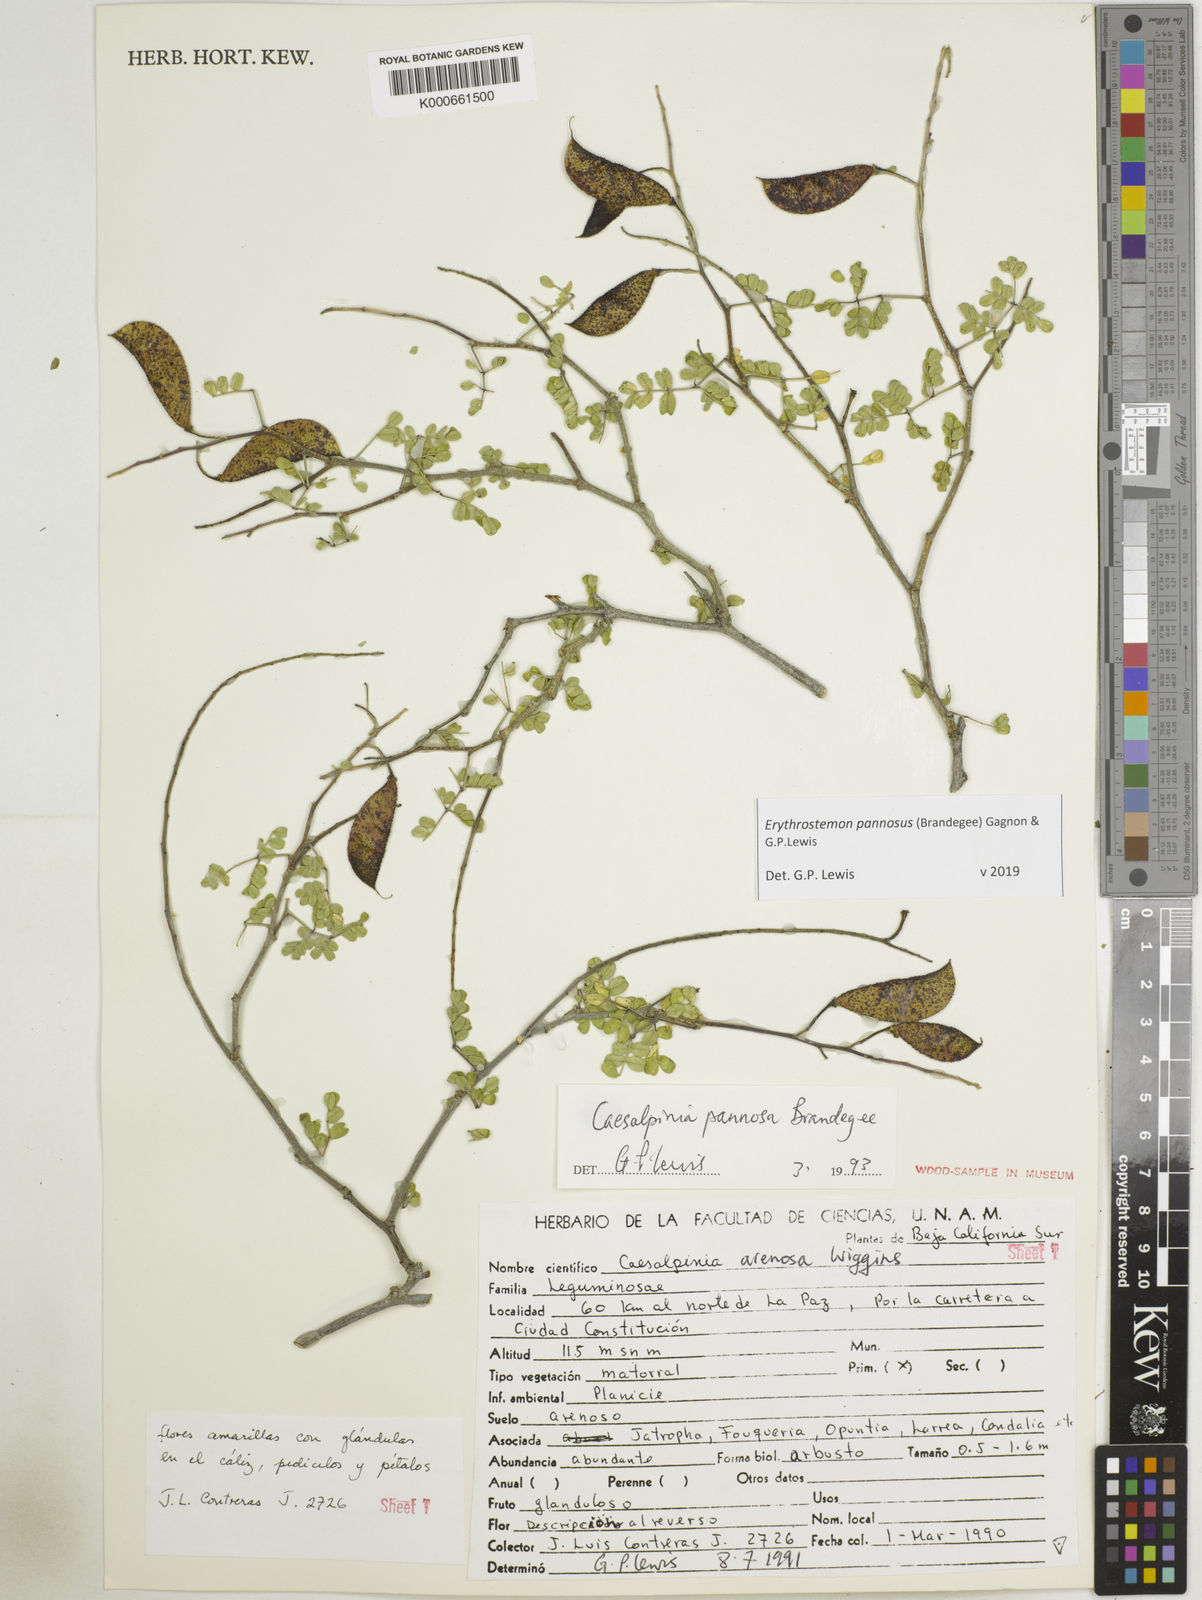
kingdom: Plantae
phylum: Tracheophyta
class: Magnoliopsida
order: Fabales
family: Fabaceae
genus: Erythrostemon
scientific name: Erythrostemon pannosus
